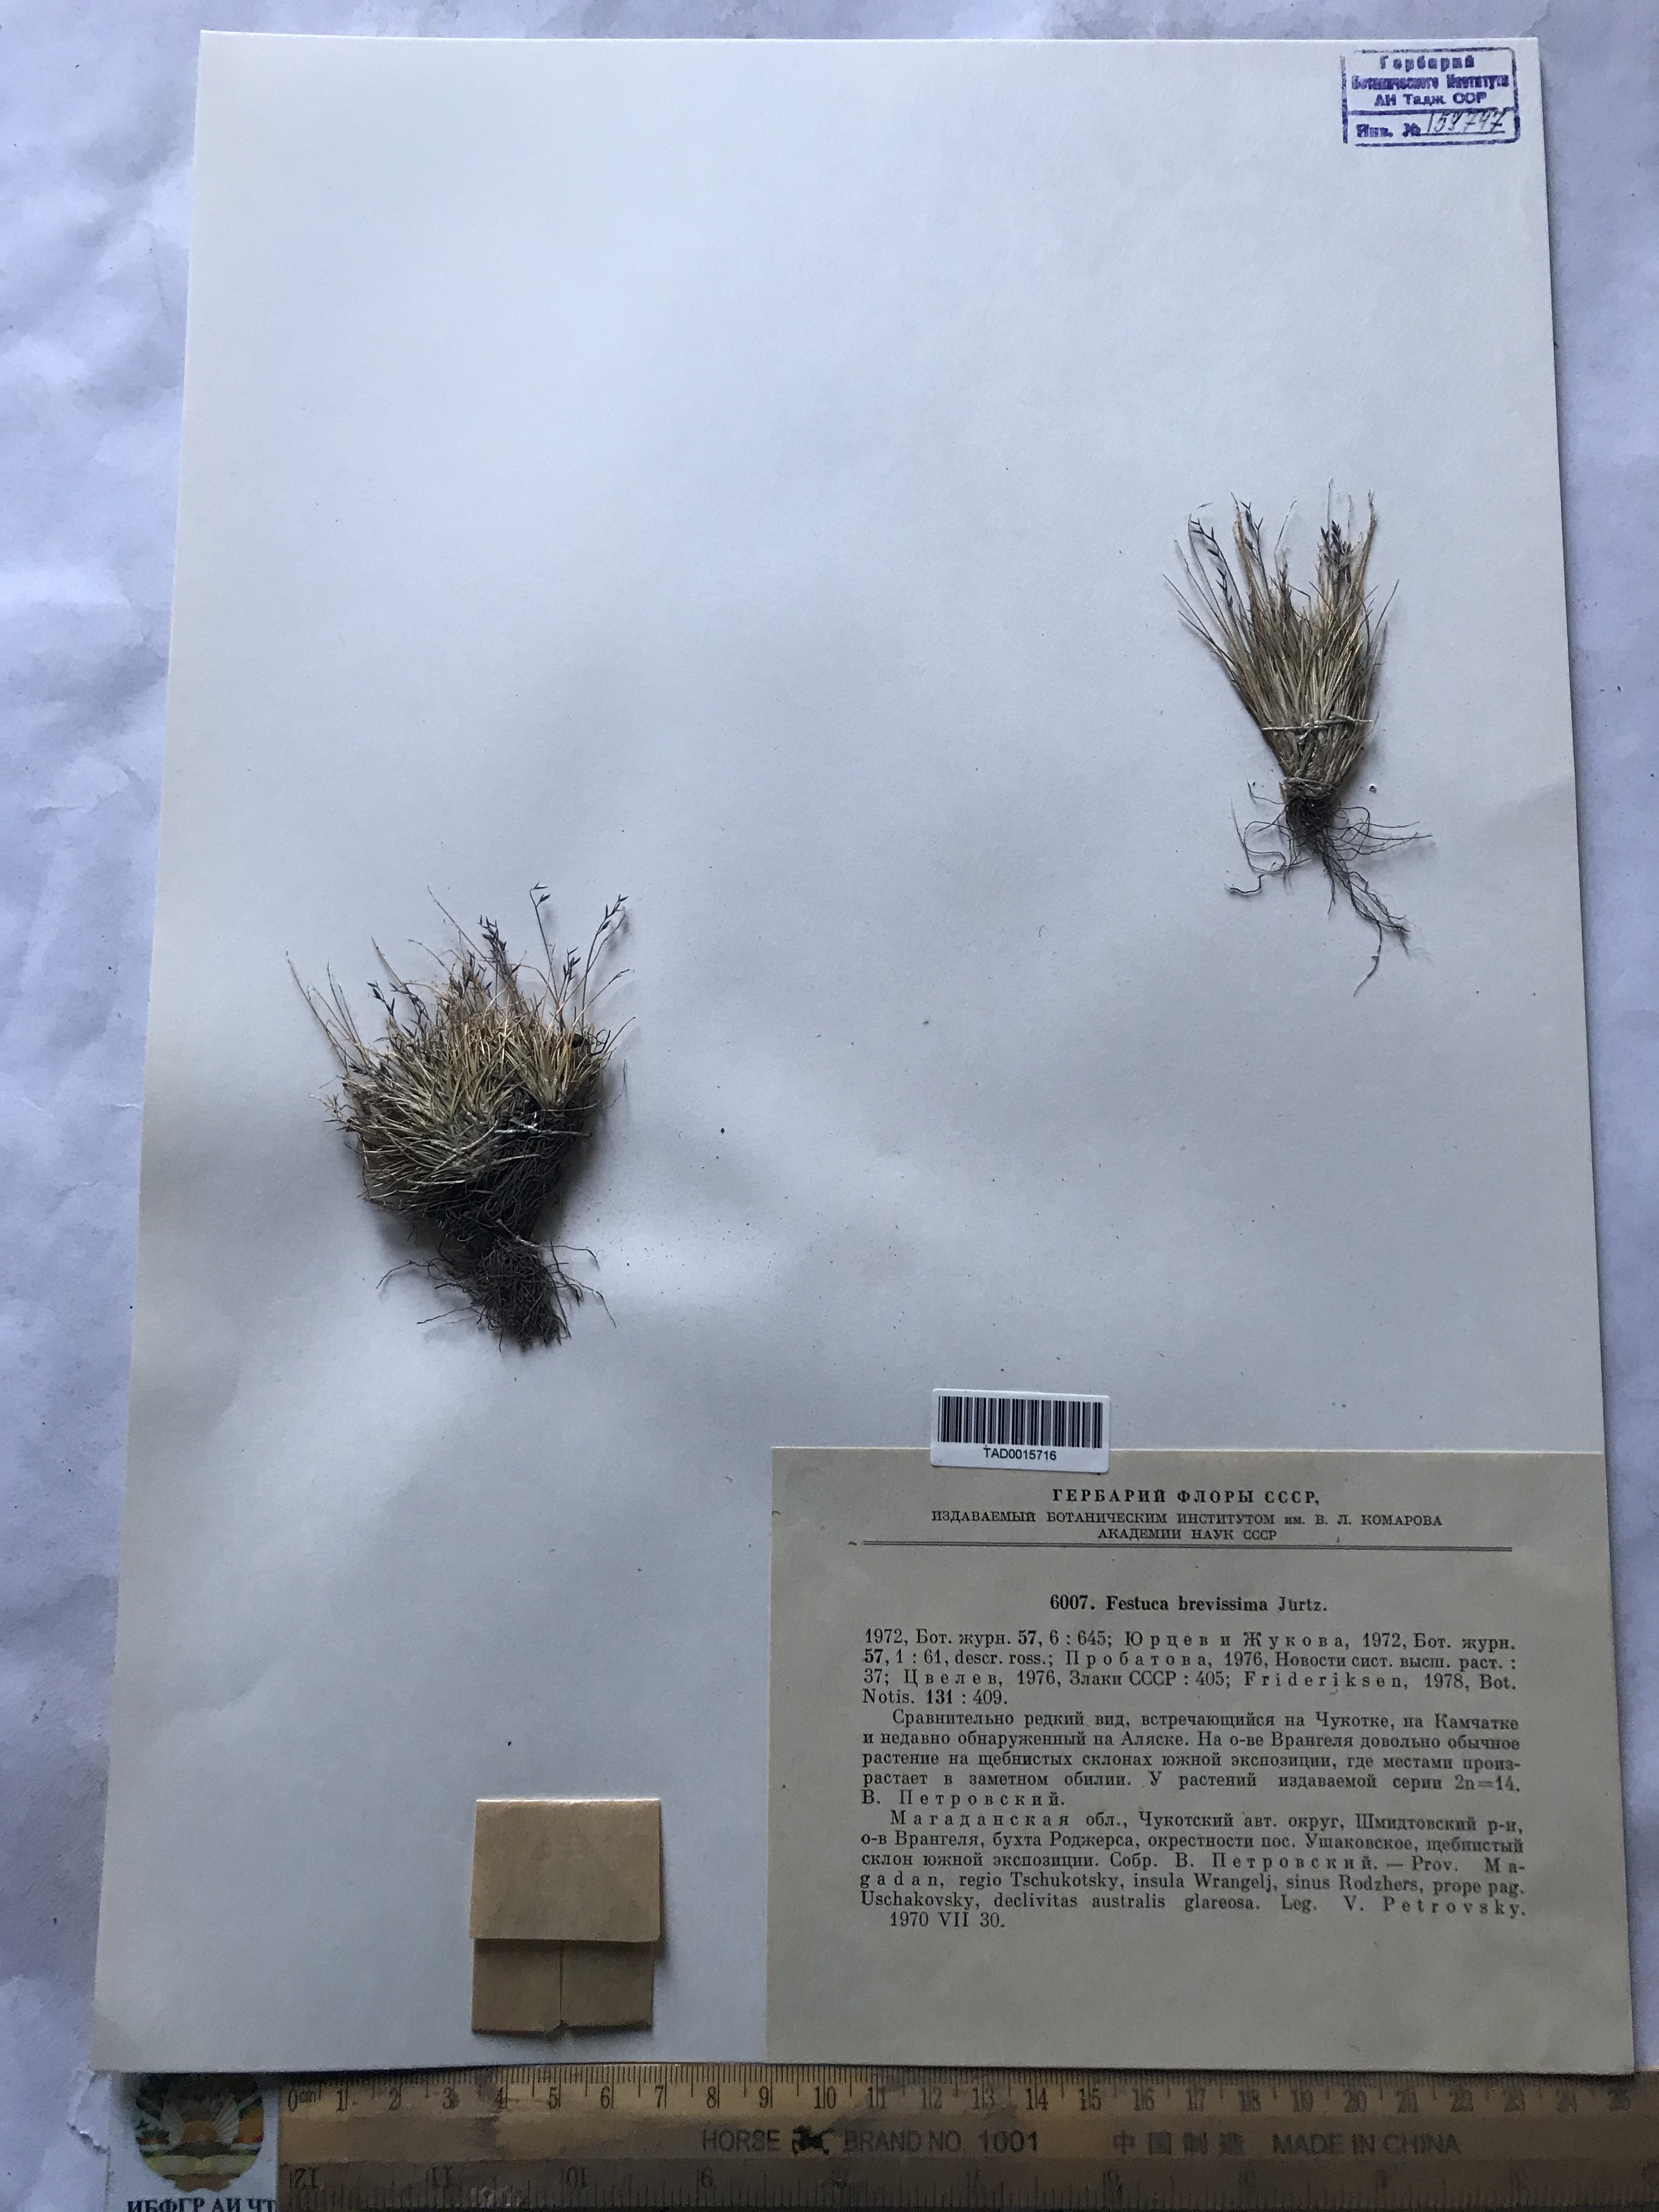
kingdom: Plantae
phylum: Tracheophyta
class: Liliopsida
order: Poales
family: Poaceae
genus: Festuca
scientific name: Festuca brevissima
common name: Alaska fescue
